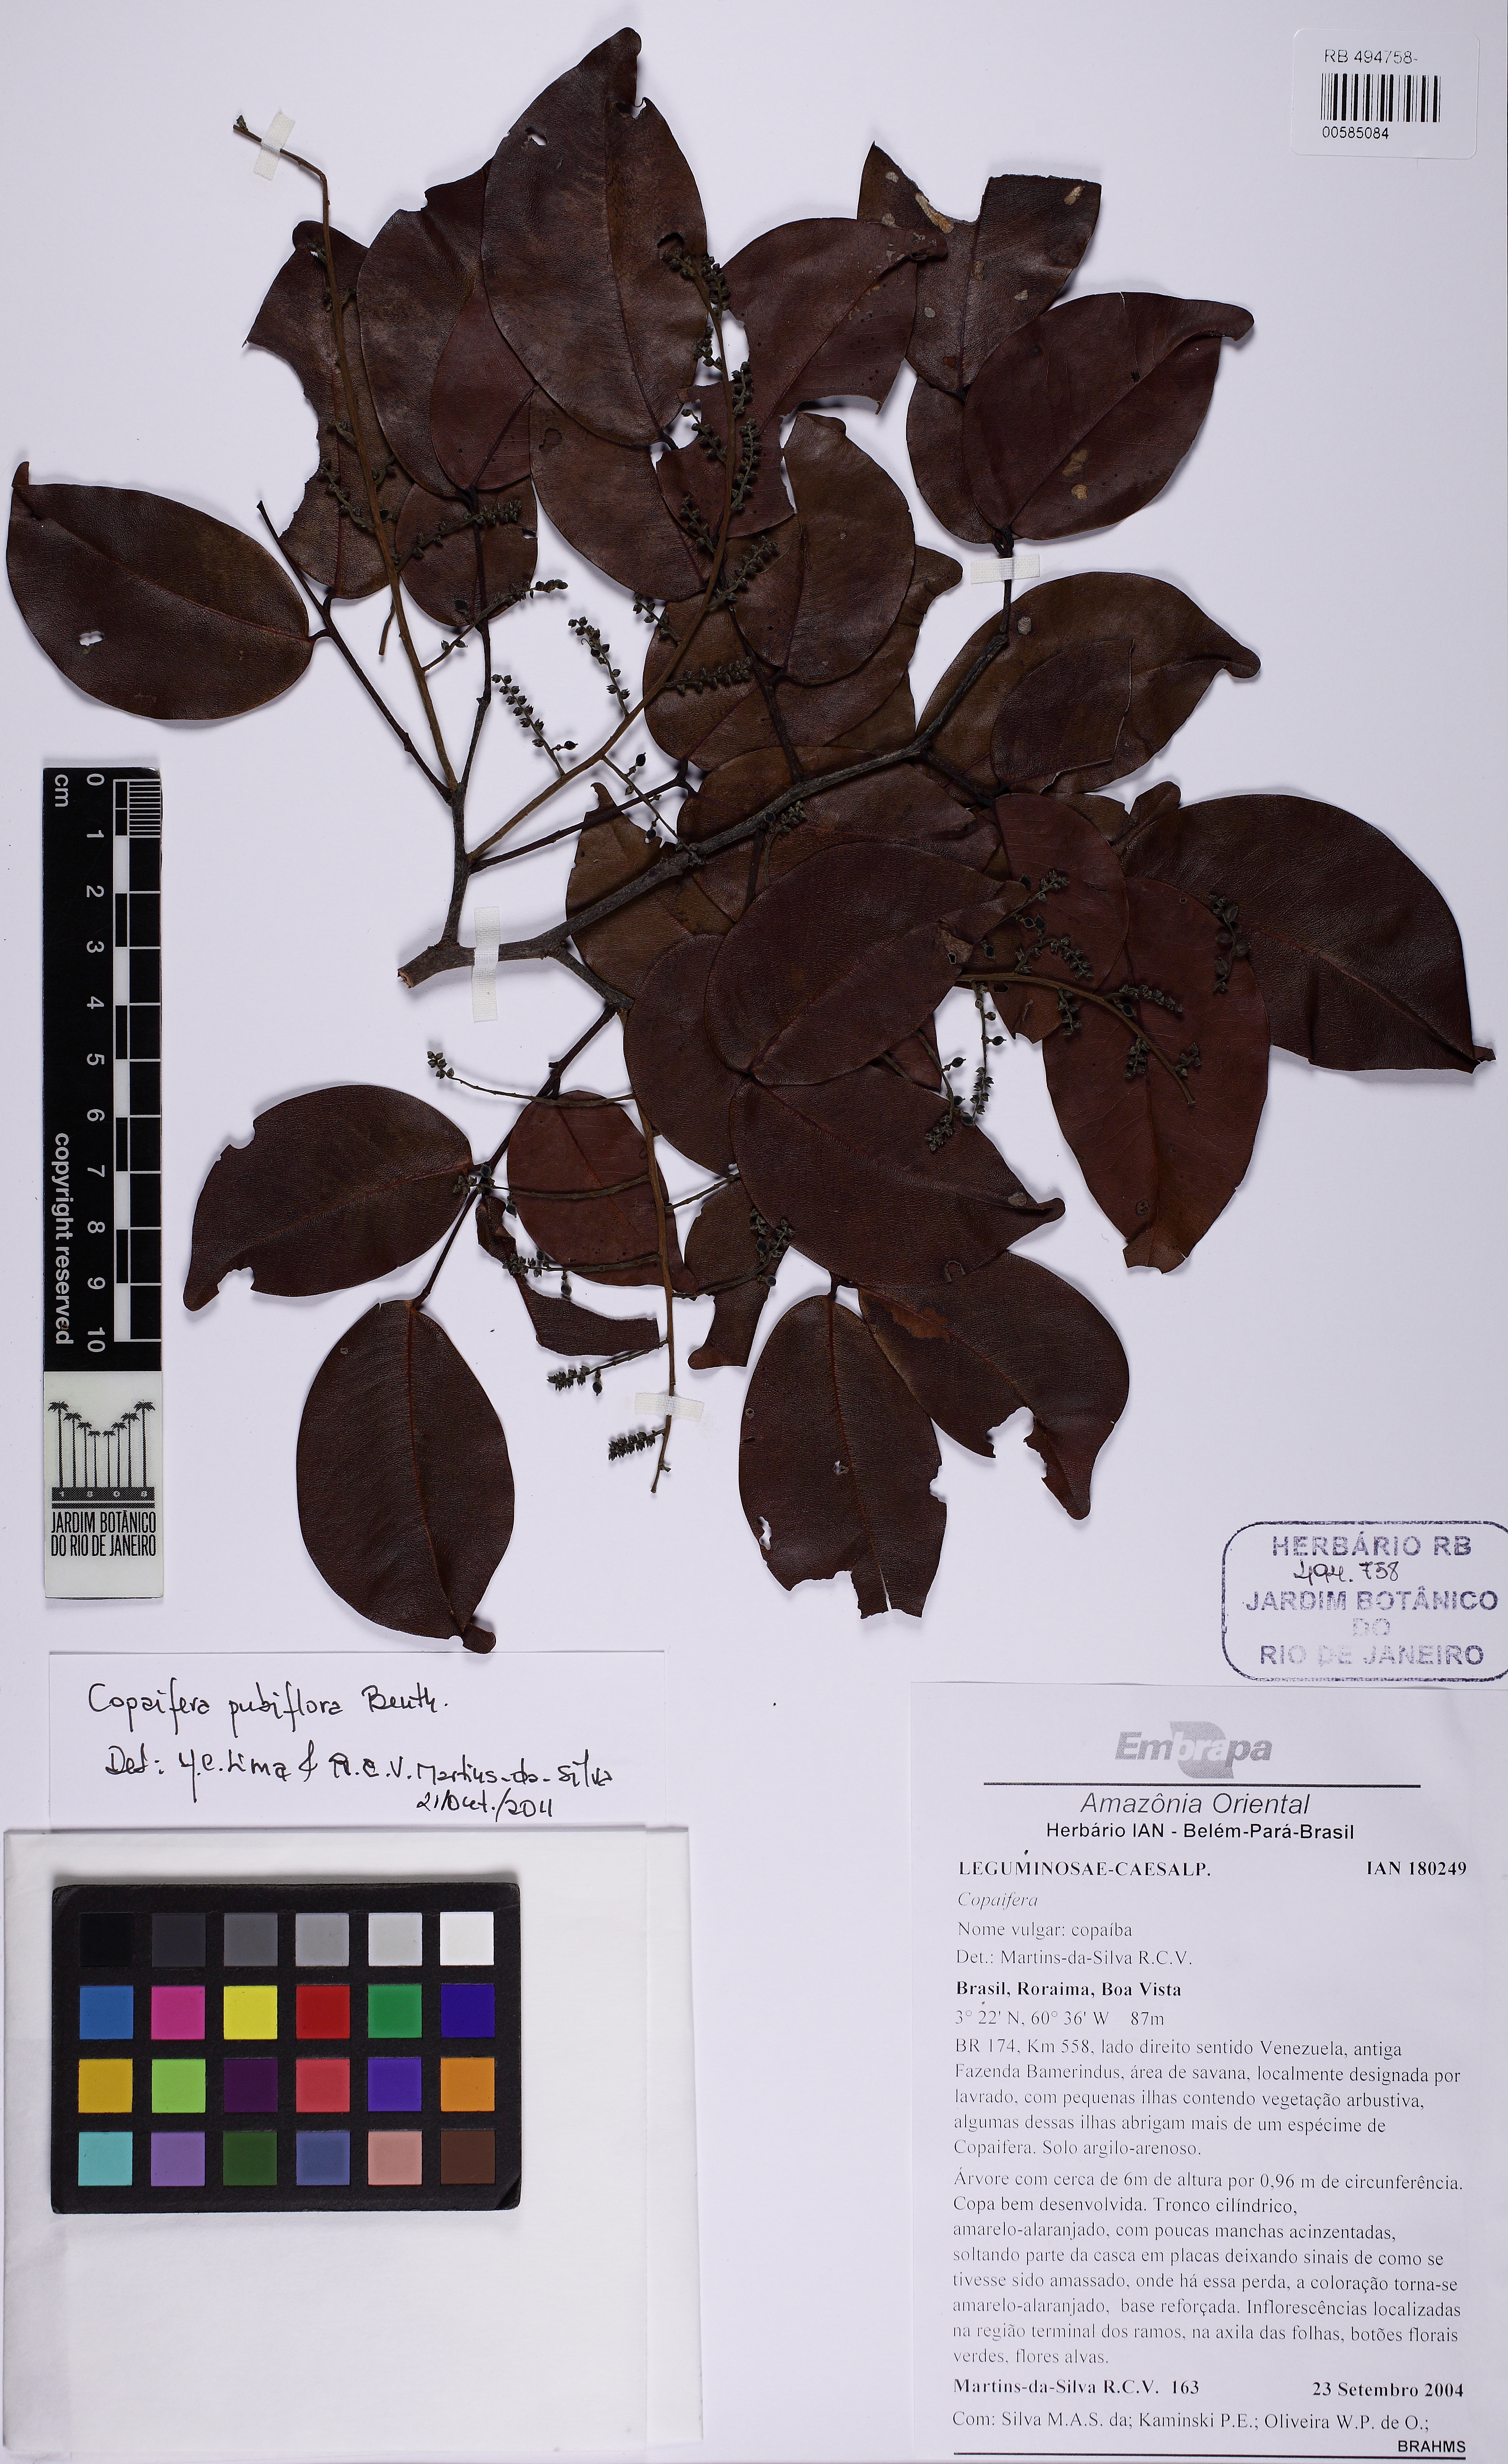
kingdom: Plantae
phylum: Tracheophyta
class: Magnoliopsida
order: Fabales
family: Fabaceae
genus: Copaifera
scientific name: Copaifera pubiflora
